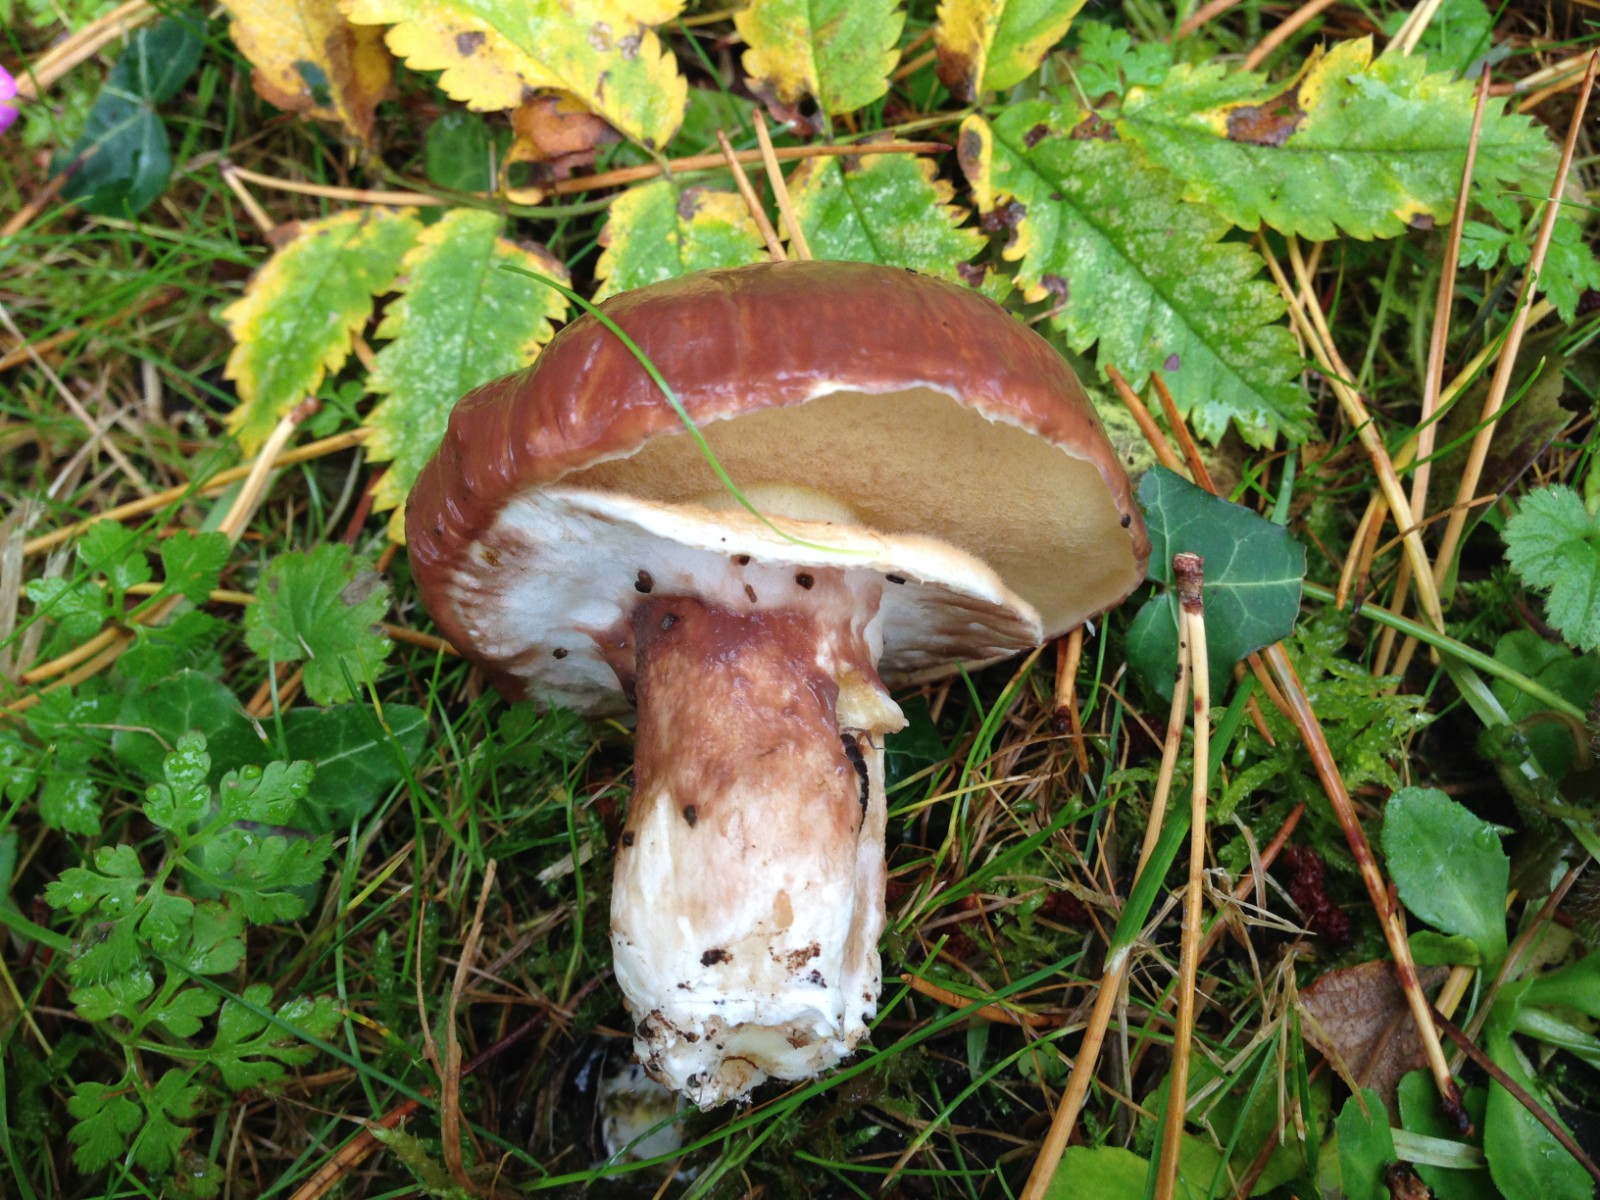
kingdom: Fungi
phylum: Basidiomycota
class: Agaricomycetes
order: Boletales
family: Suillaceae
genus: Suillus
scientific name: Suillus luteus
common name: brungul slimrørhat
